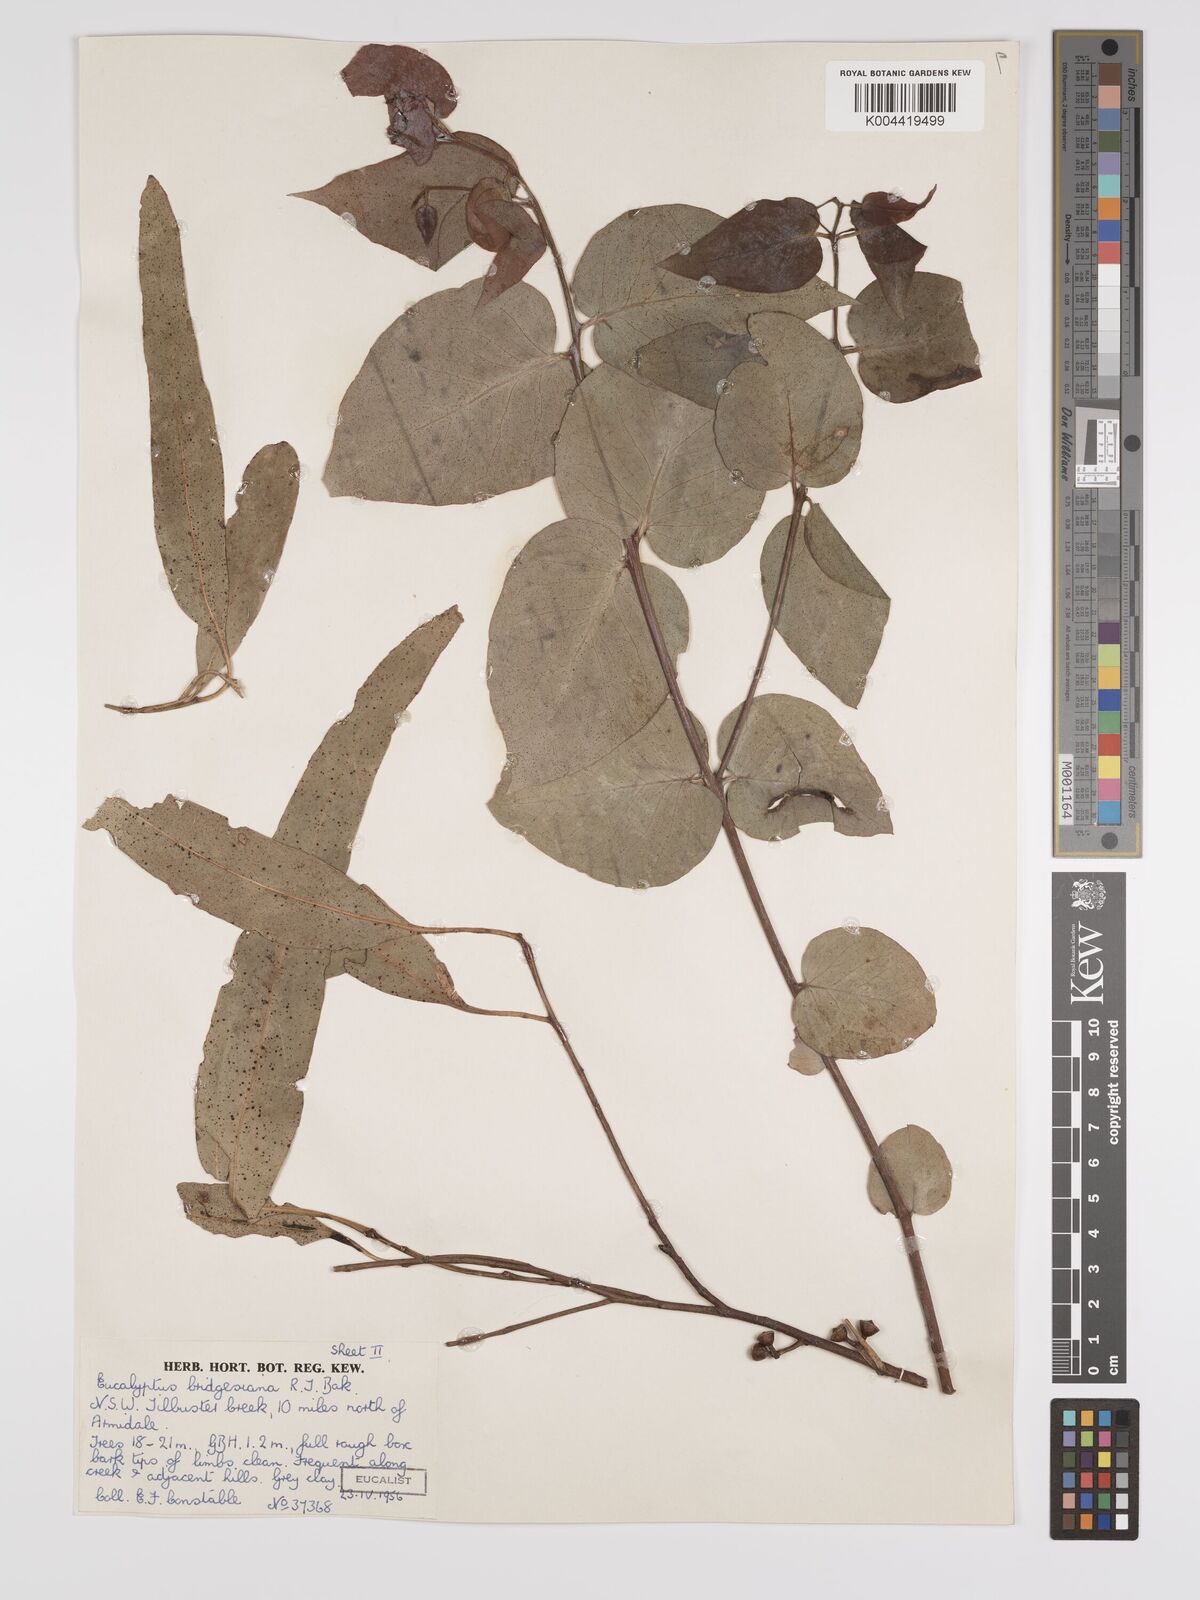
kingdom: Plantae
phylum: Tracheophyta
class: Magnoliopsida
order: Myrtales
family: Myrtaceae
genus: Eucalyptus
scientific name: Eucalyptus bridgesiana
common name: Applebox
